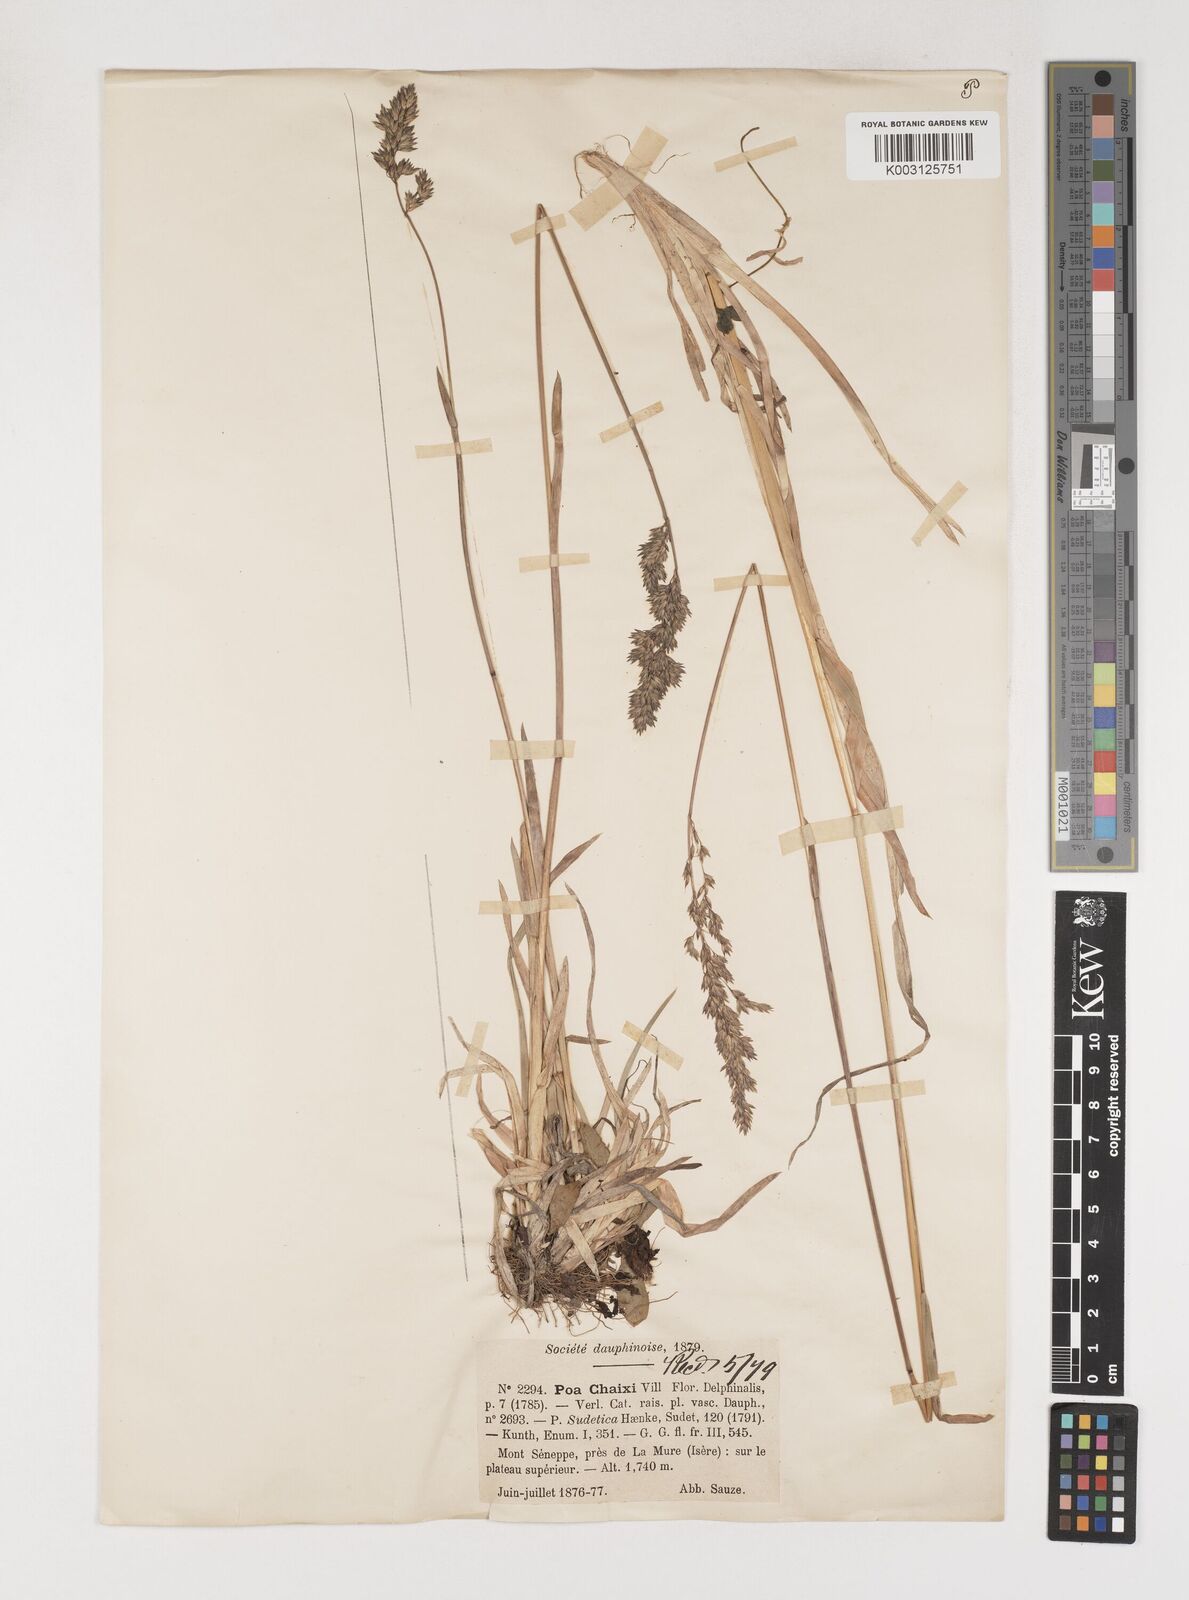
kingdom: Plantae
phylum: Tracheophyta
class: Liliopsida
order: Poales
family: Poaceae
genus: Poa
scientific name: Poa chaixii
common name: Broad-leaved meadow-grass
